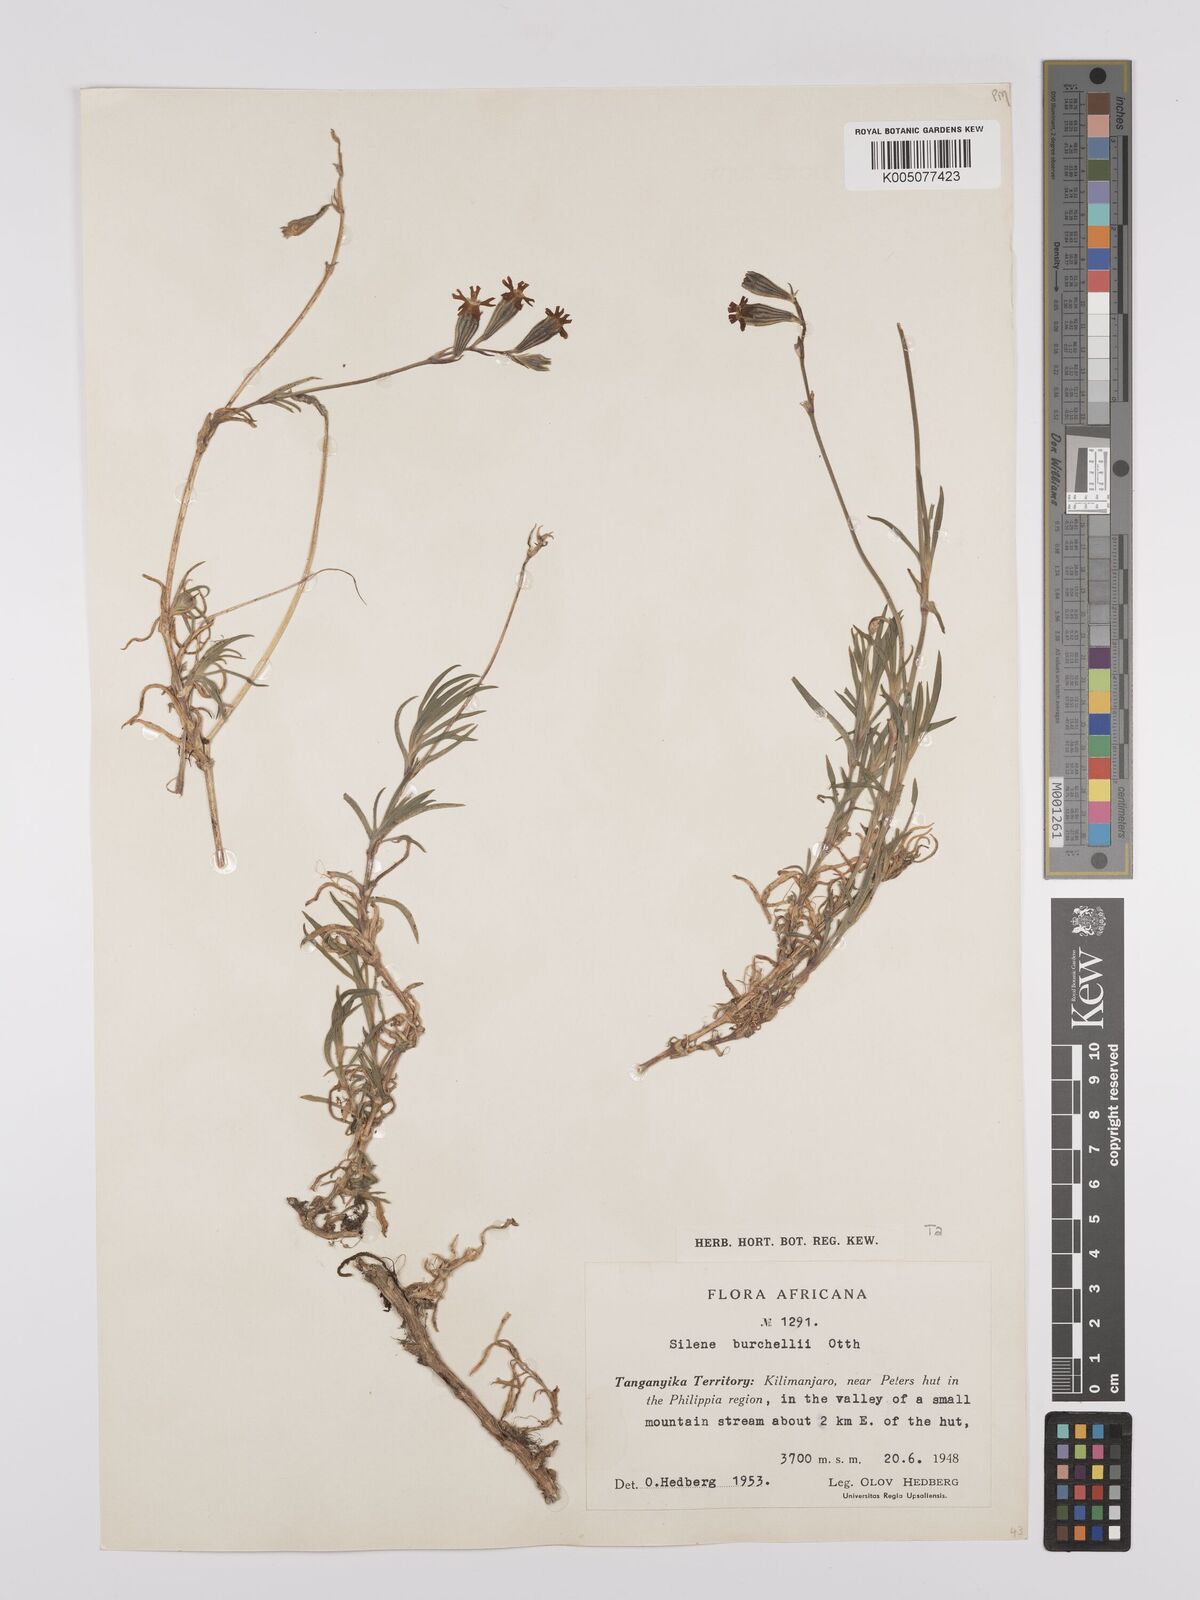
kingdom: Plantae
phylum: Tracheophyta
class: Magnoliopsida
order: Caryophyllales
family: Caryophyllaceae
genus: Silene
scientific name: Silene burchellii
